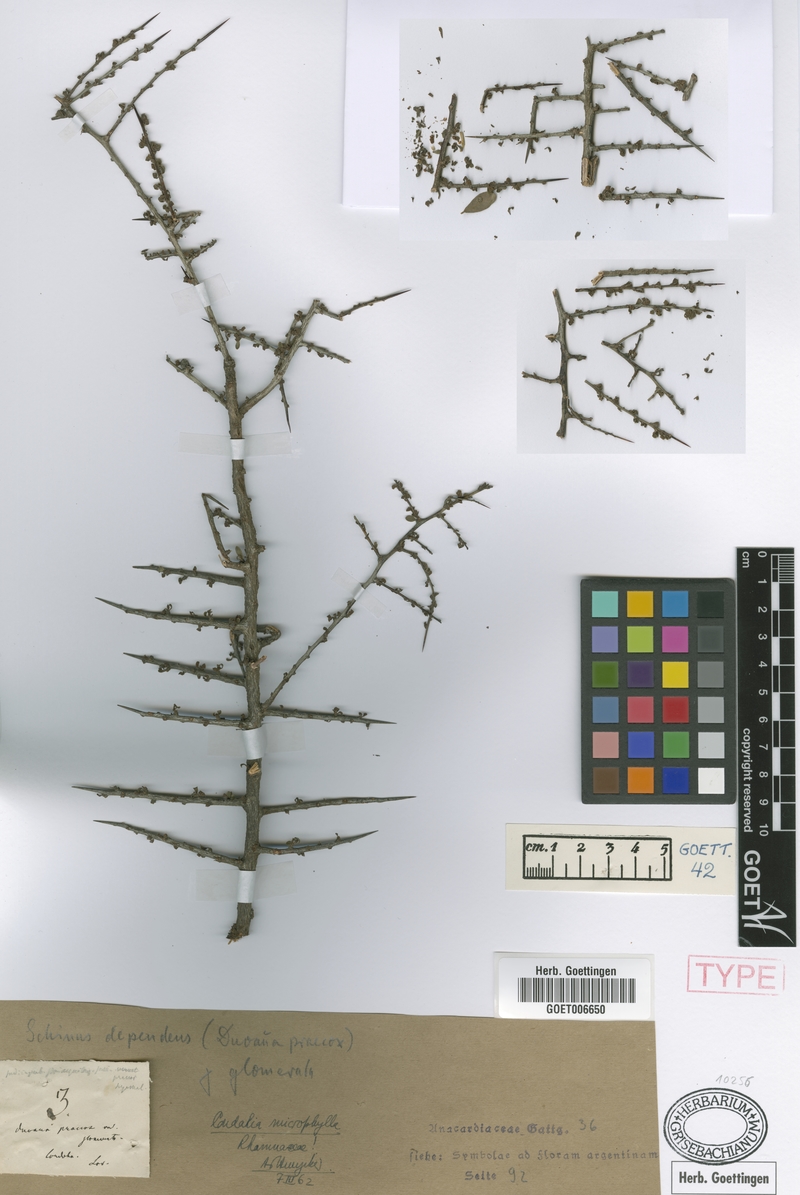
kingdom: Plantae
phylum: Tracheophyta
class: Magnoliopsida
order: Sapindales
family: Anacardiaceae
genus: Schinus
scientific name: Schinus fasciculata
